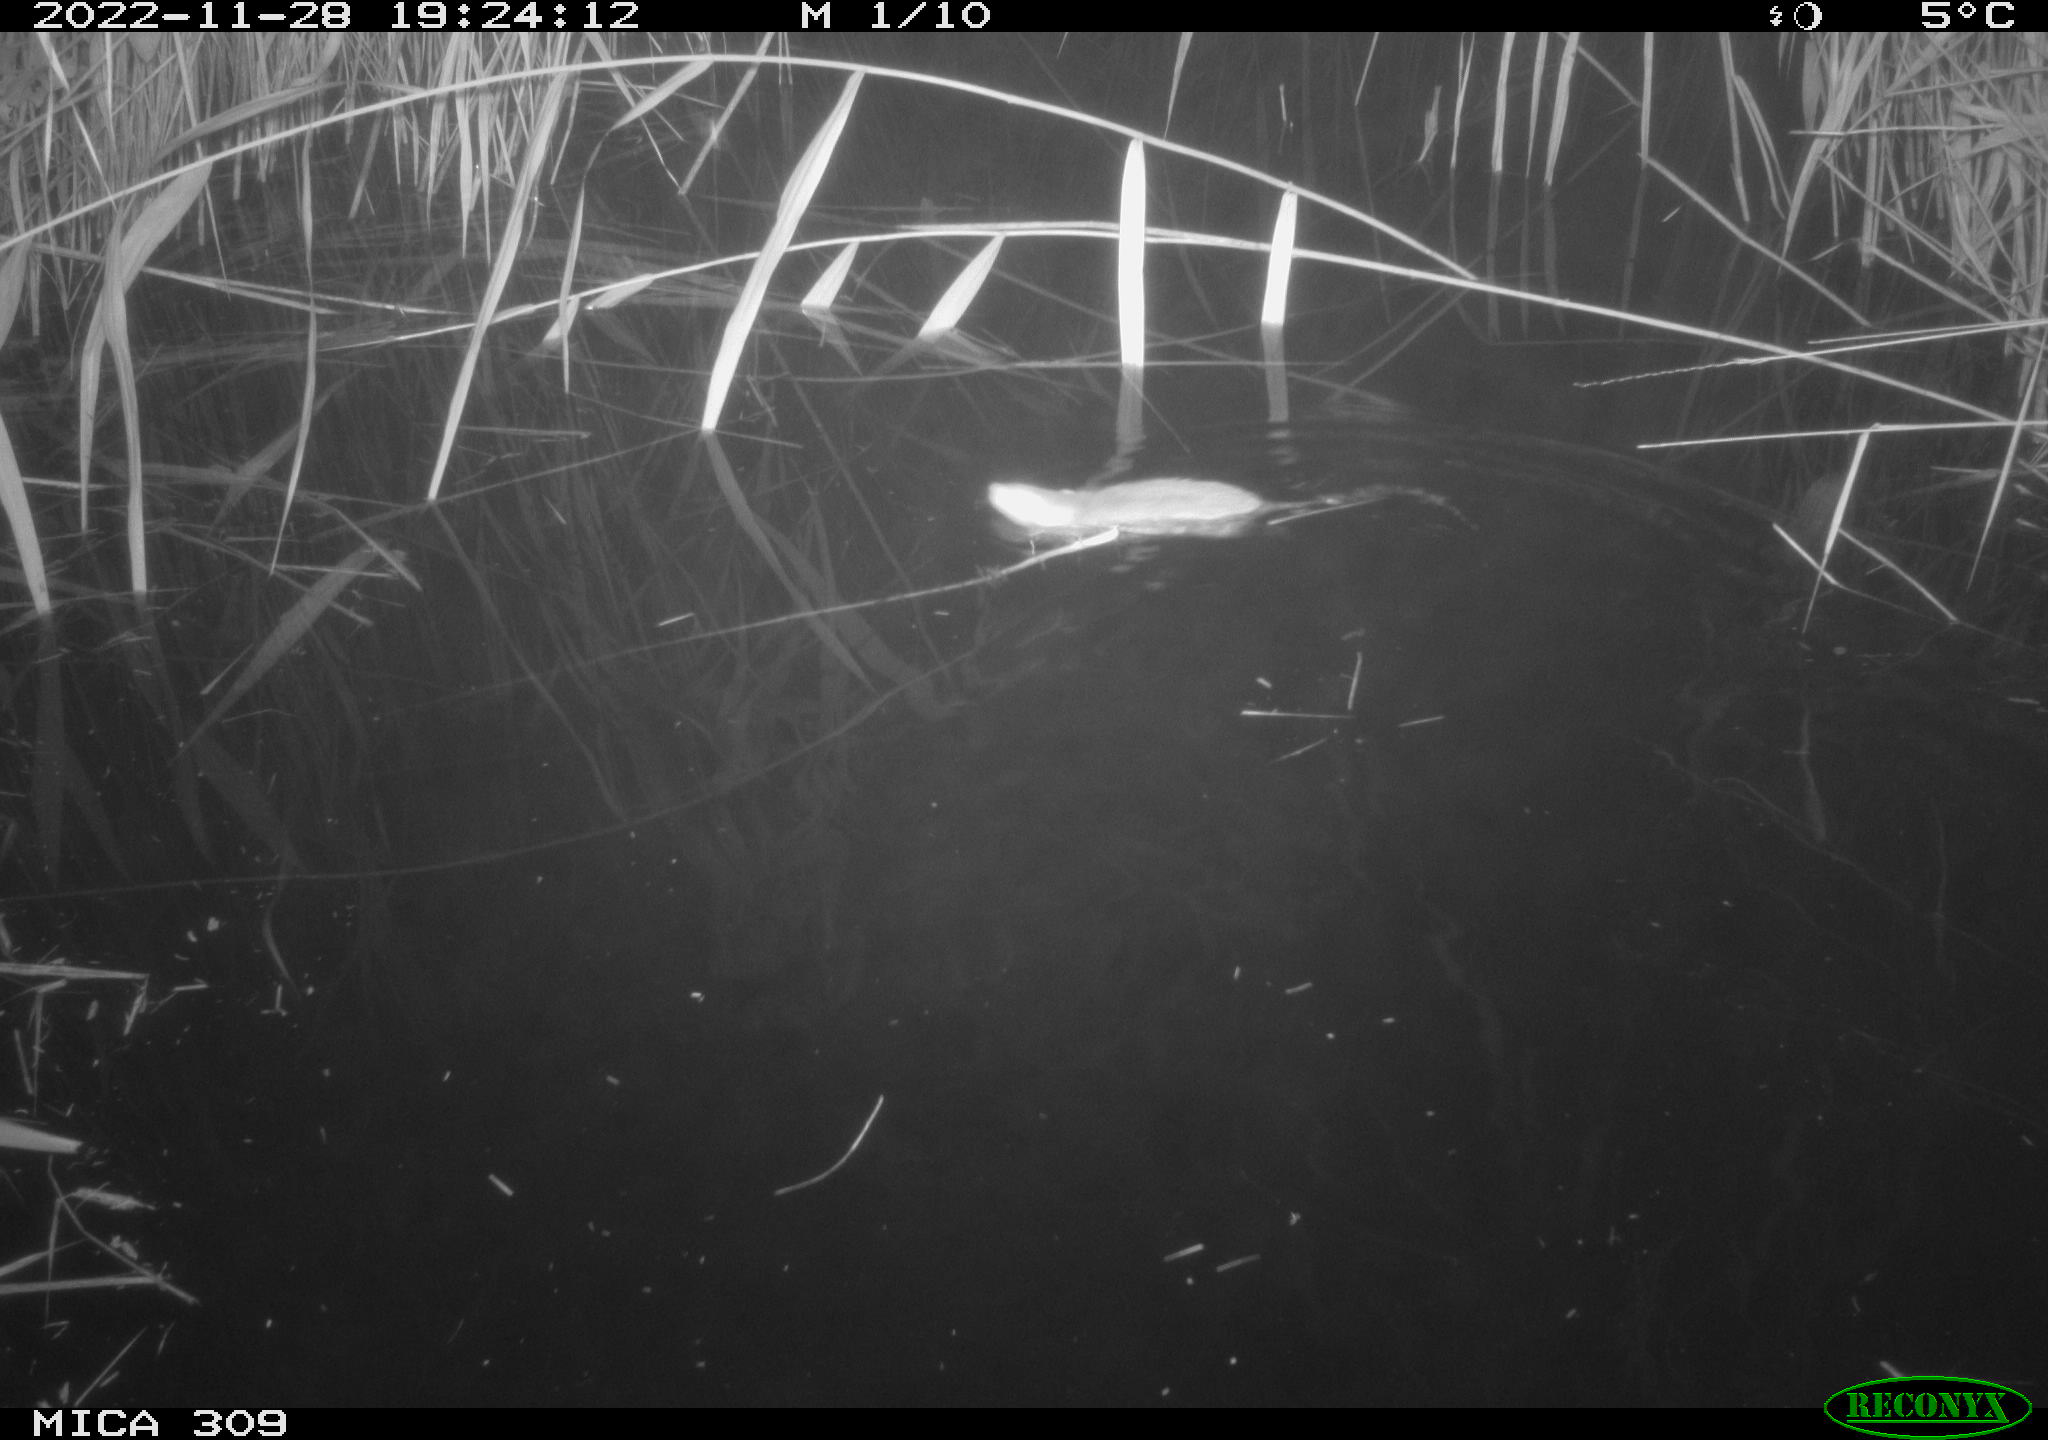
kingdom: Animalia
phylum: Chordata
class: Mammalia
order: Rodentia
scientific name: Rodentia
